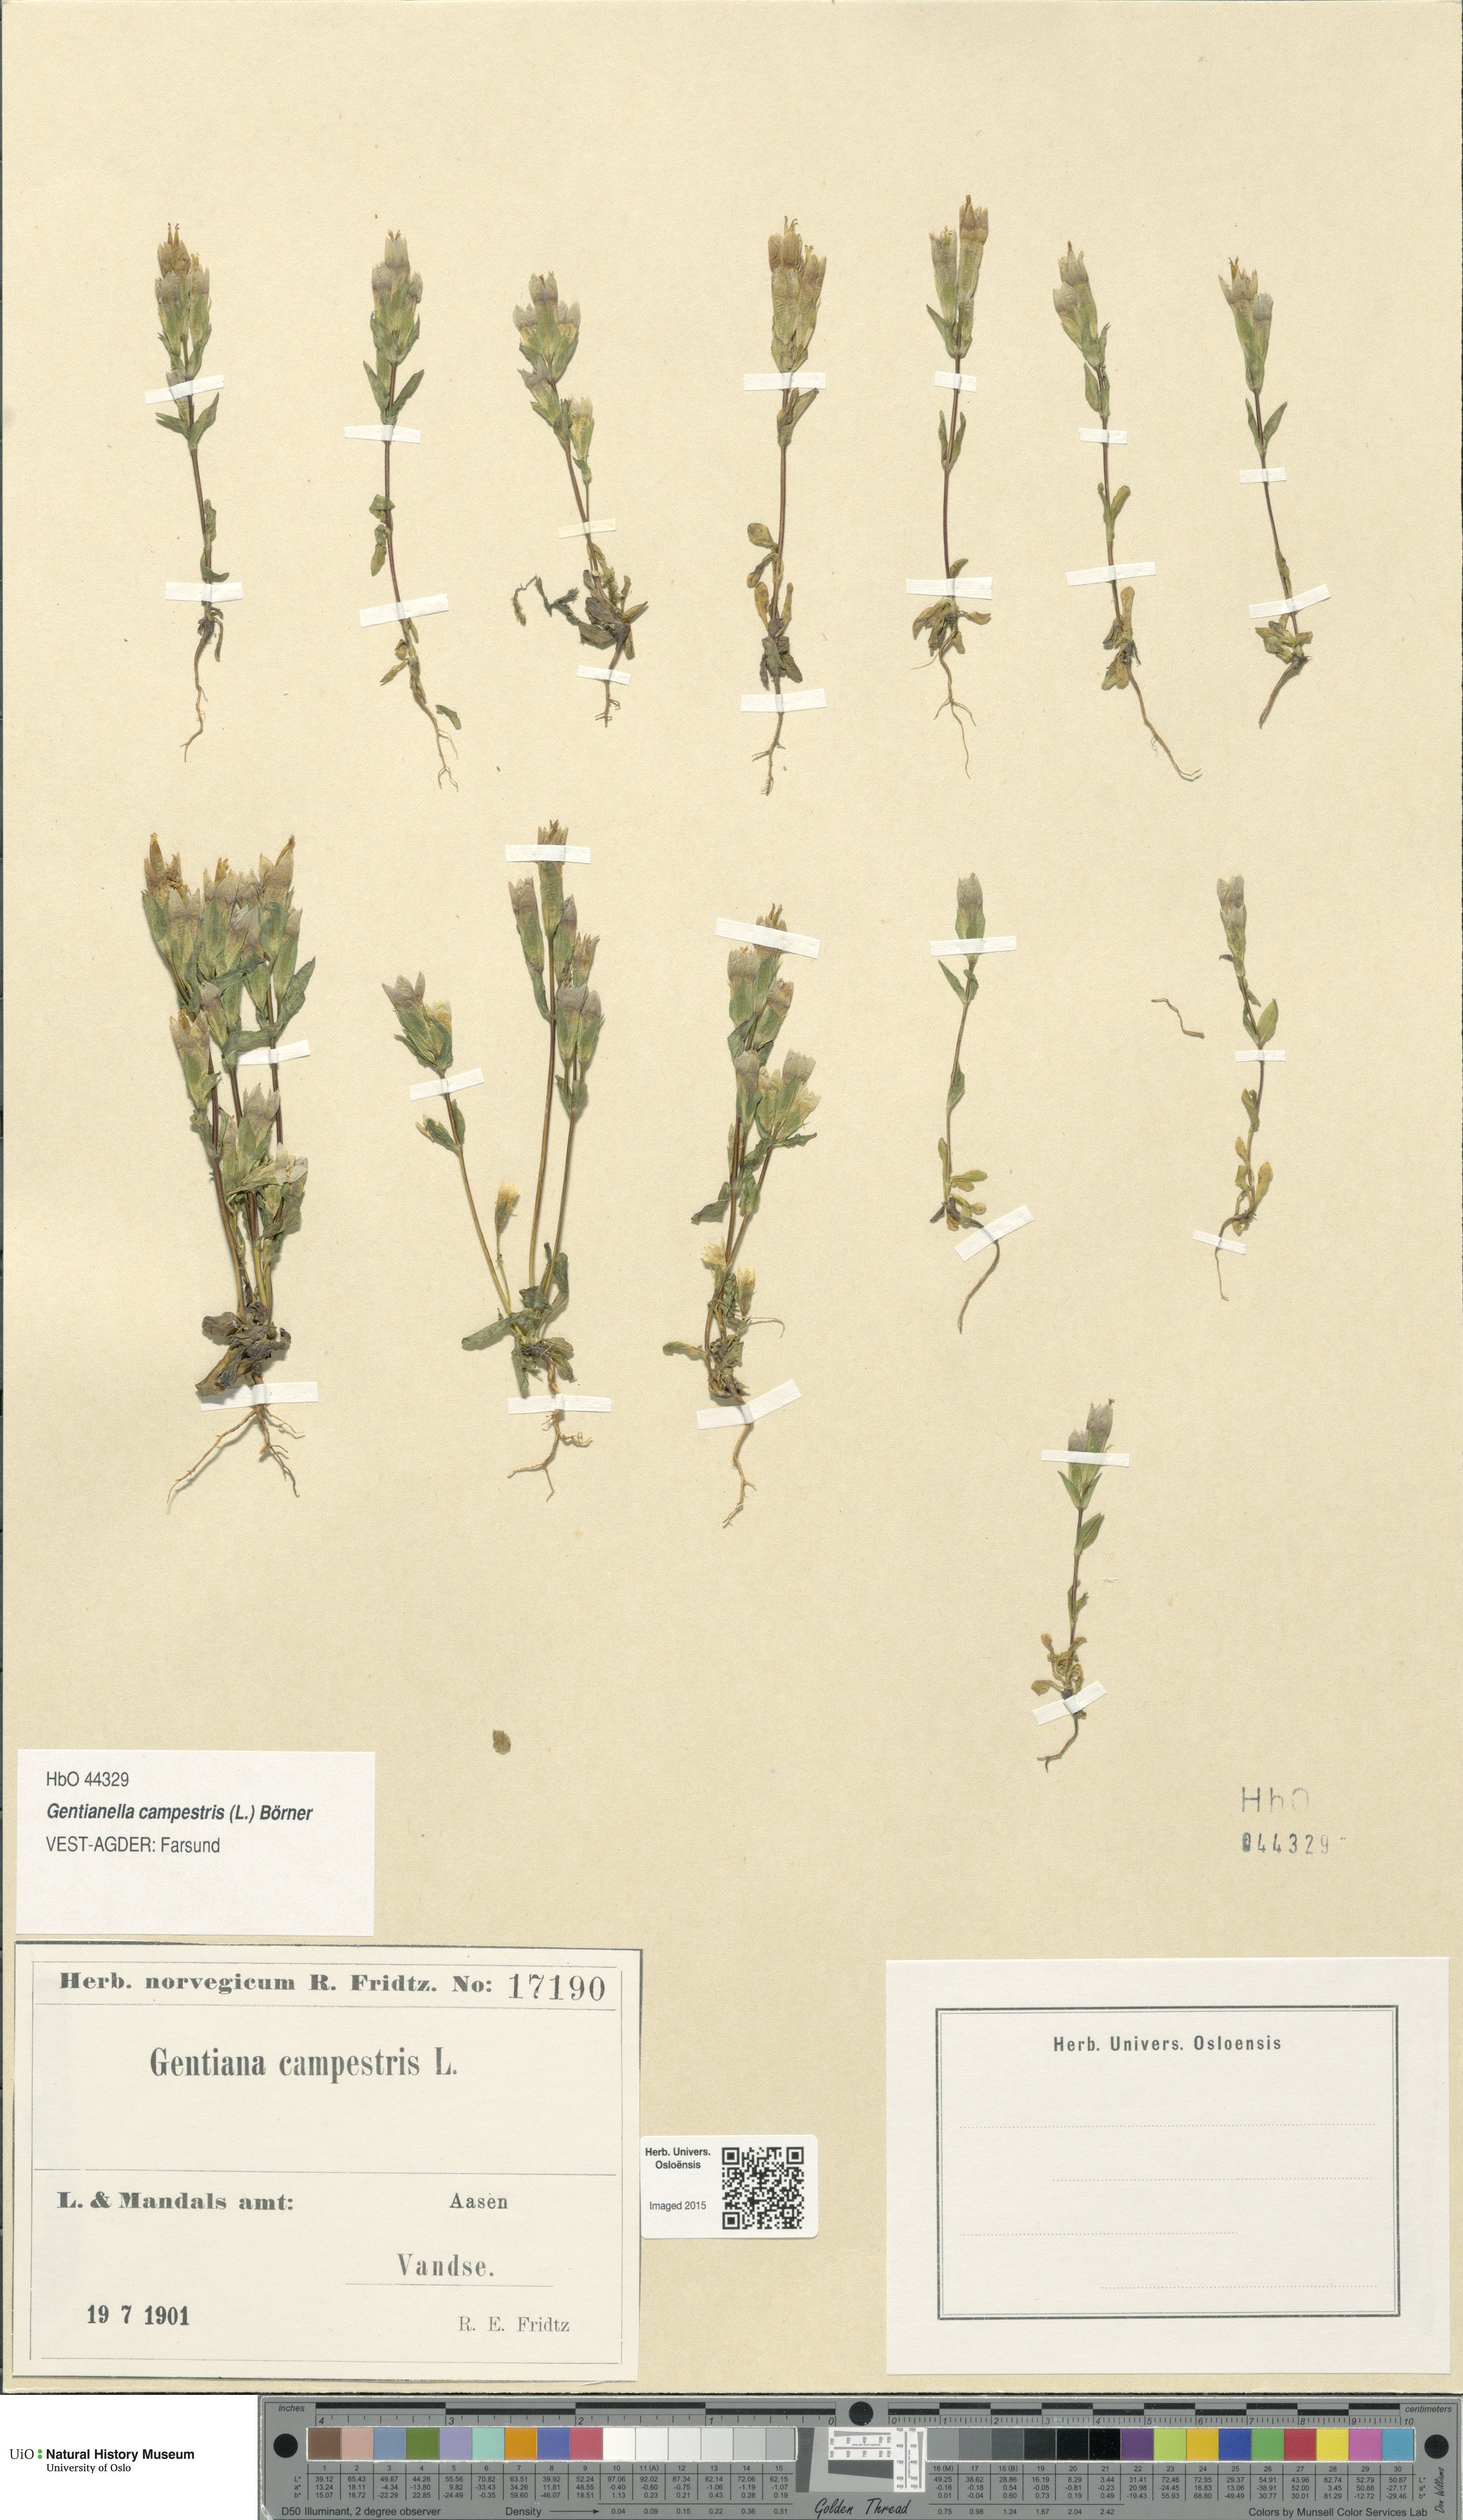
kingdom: Plantae
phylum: Tracheophyta
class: Magnoliopsida
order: Gentianales
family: Gentianaceae
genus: Gentianella
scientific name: Gentianella campestris
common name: Field gentian
